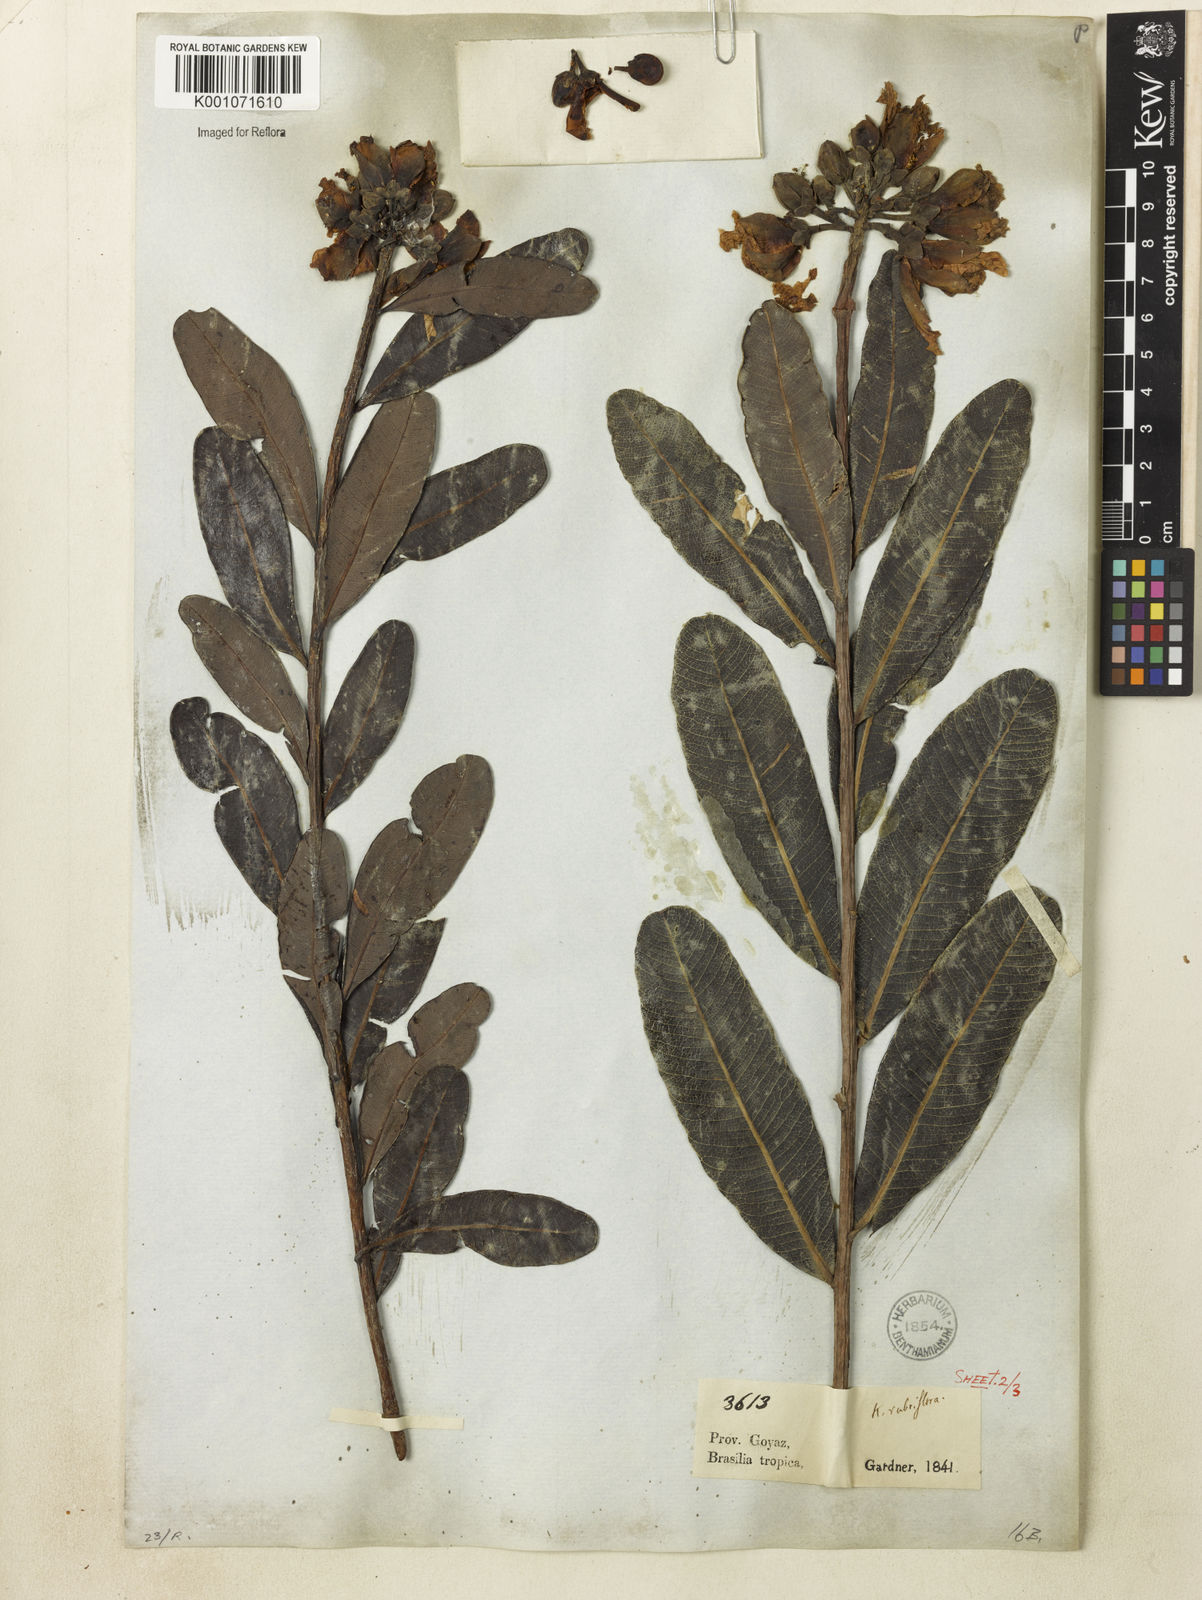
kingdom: Plantae
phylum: Tracheophyta
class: Magnoliopsida
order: Malpighiales
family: Calophyllaceae
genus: Kielmeyera
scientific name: Kielmeyera rubriflora
